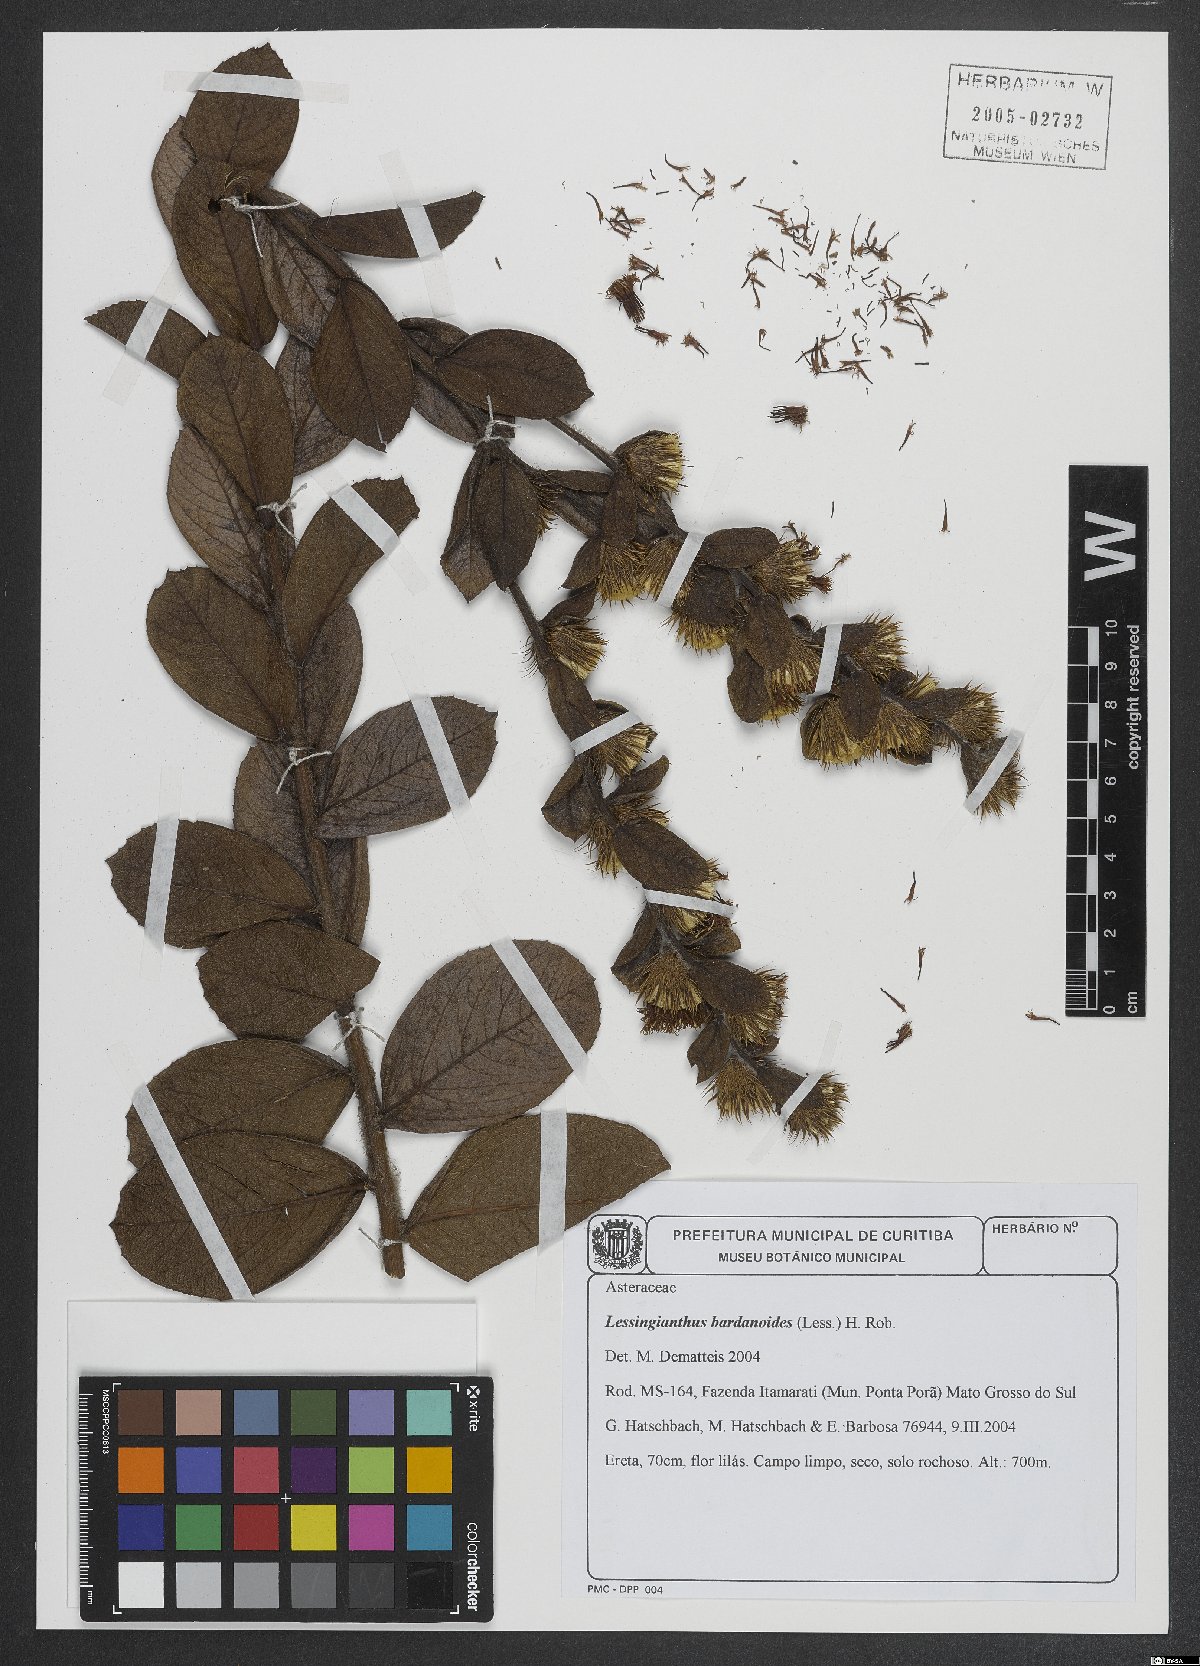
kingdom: Plantae
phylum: Tracheophyta
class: Magnoliopsida
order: Asterales
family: Asteraceae
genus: Lessingianthus
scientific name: Lessingianthus bardanioides
